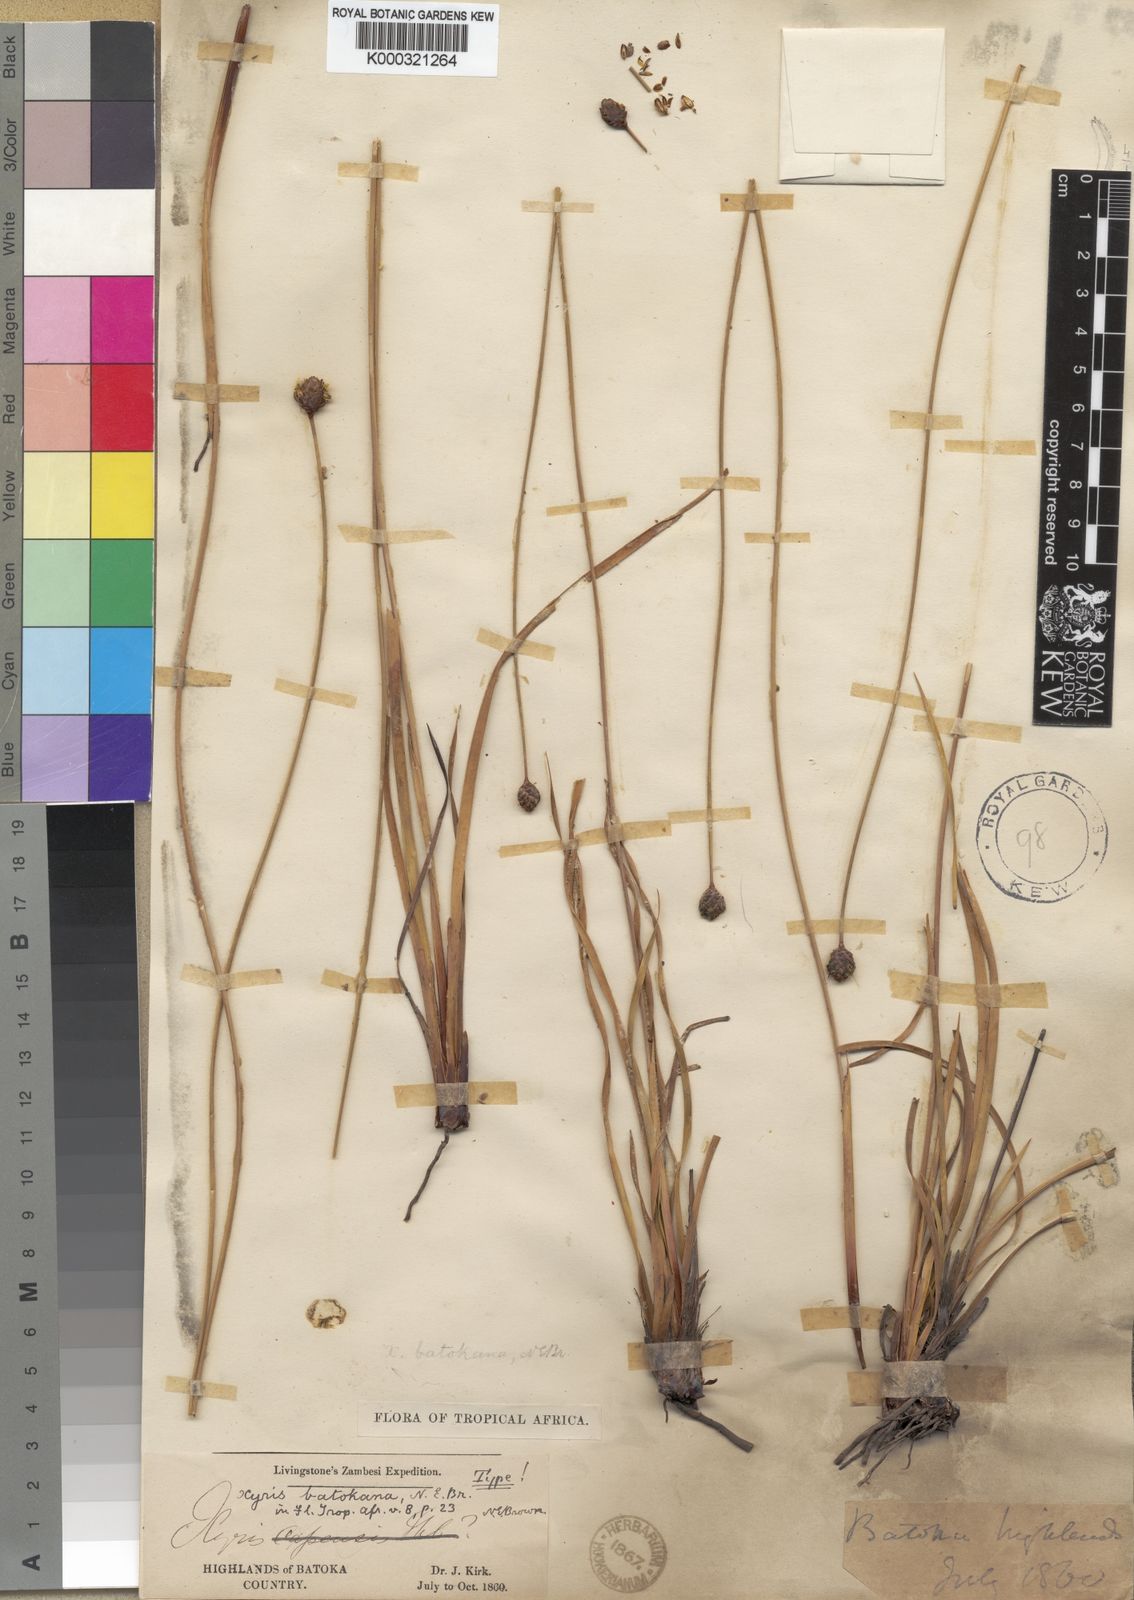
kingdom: Plantae
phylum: Tracheophyta
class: Liliopsida
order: Poales
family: Xyridaceae
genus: Xyris
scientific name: Xyris
